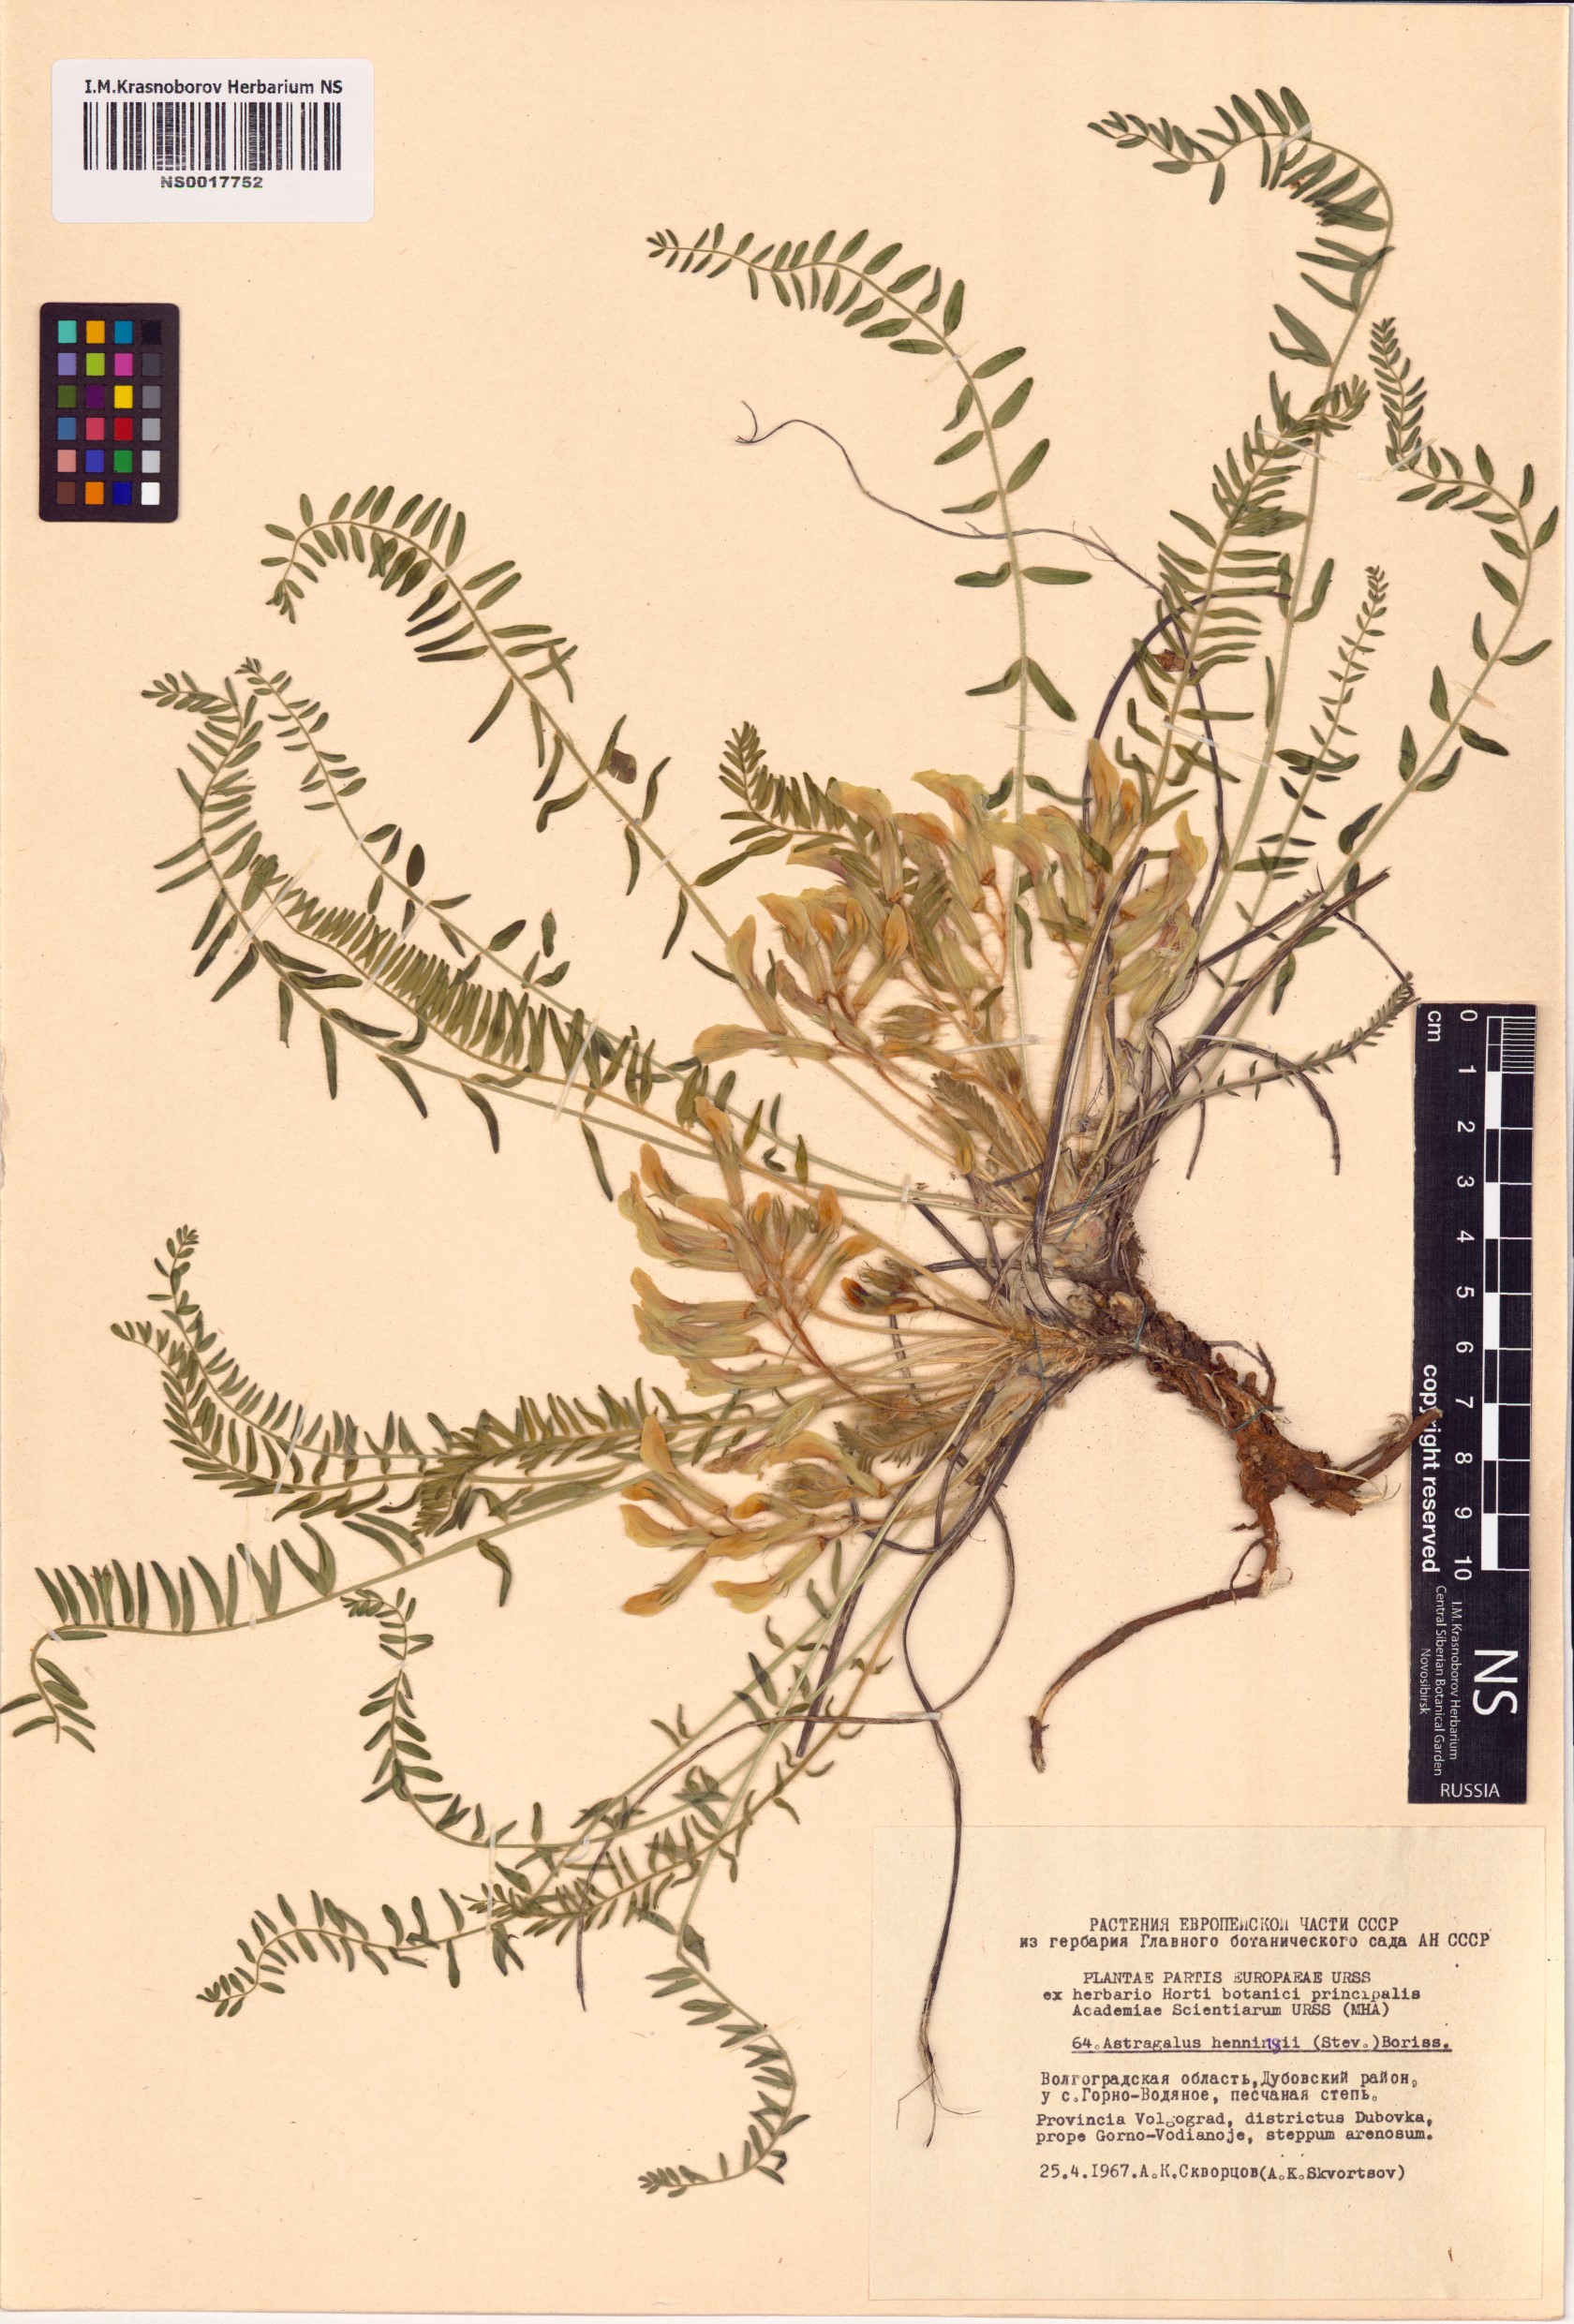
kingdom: Plantae
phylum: Tracheophyta
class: Magnoliopsida
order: Fabales
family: Fabaceae
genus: Astragalus
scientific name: Astragalus buchtormensis
